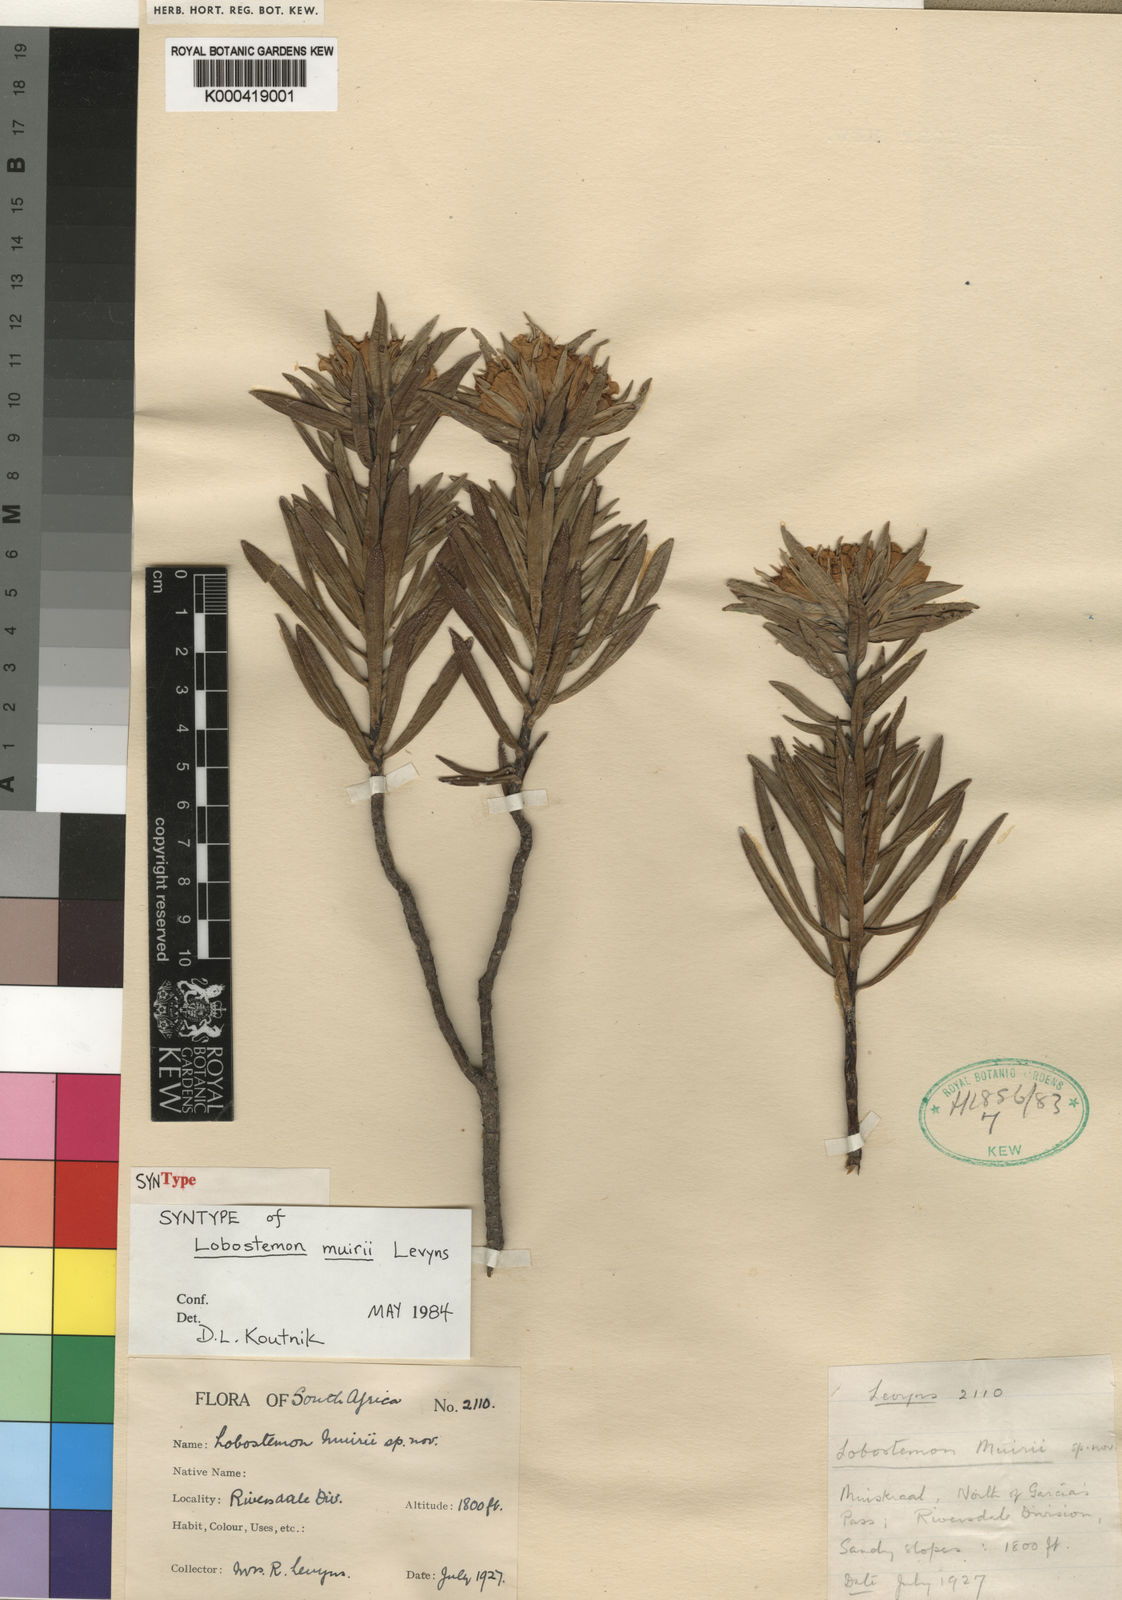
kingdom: Plantae
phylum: Tracheophyta
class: Magnoliopsida
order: Boraginales
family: Boraginaceae
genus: Lobostemon
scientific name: Lobostemon muirii
